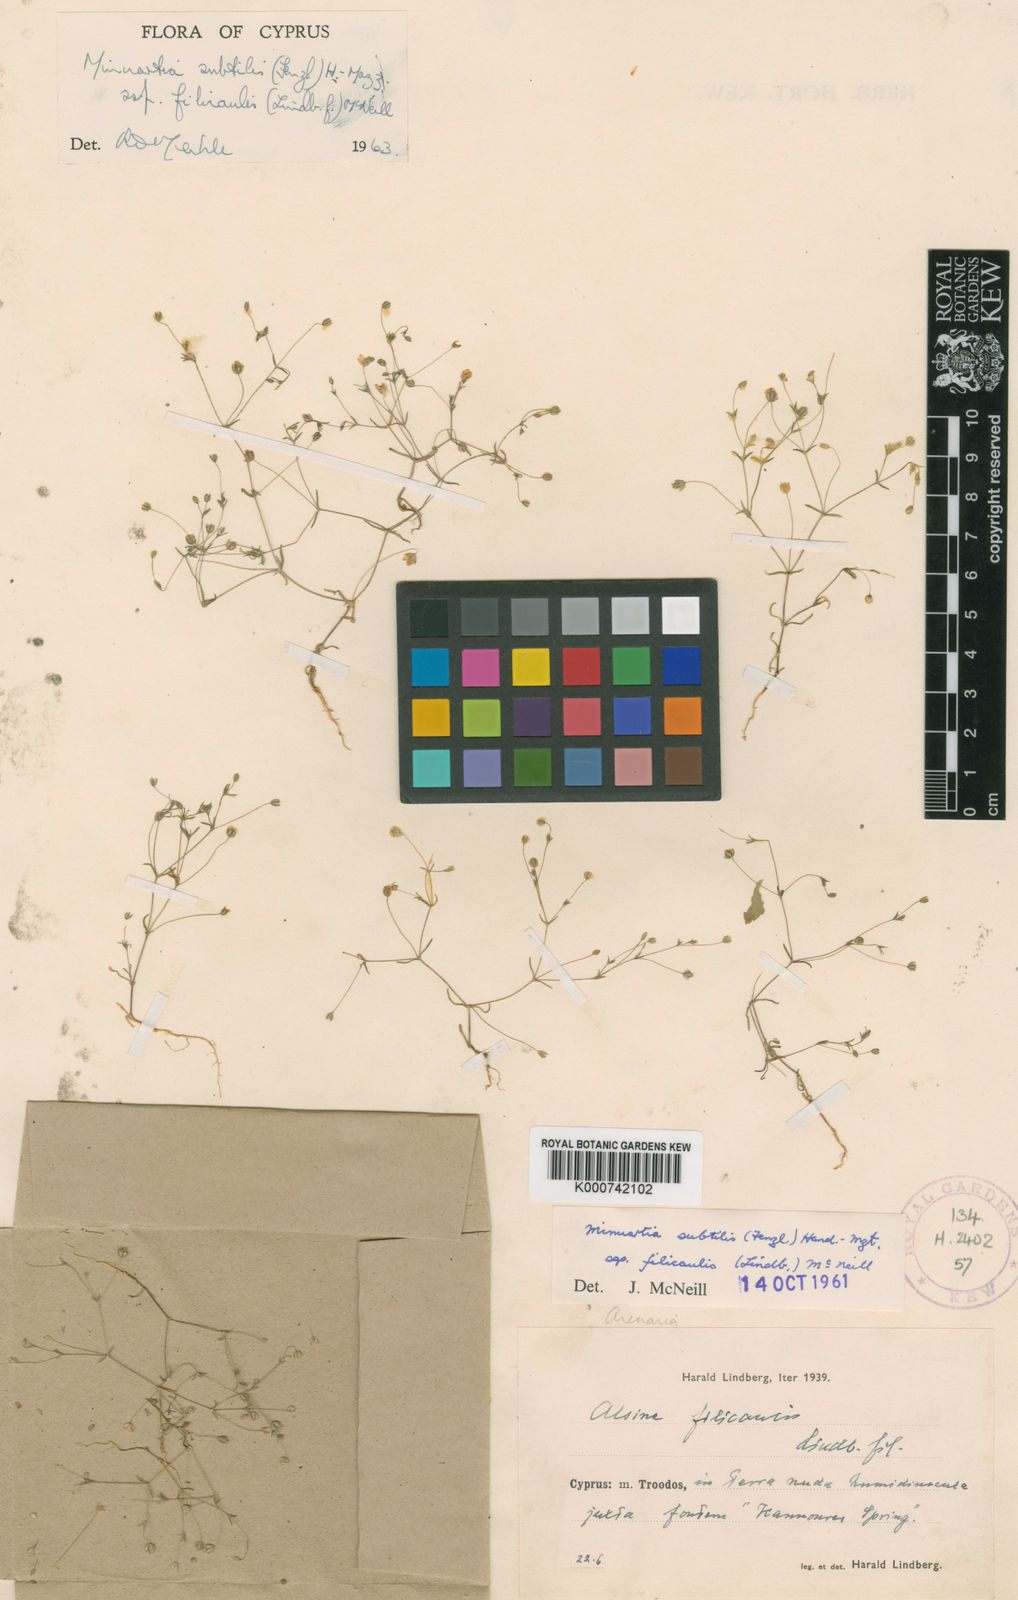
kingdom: Plantae
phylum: Tracheophyta
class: Magnoliopsida
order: Caryophyllales
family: Caryophyllaceae
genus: Sabulina
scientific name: Sabulina subtilis
